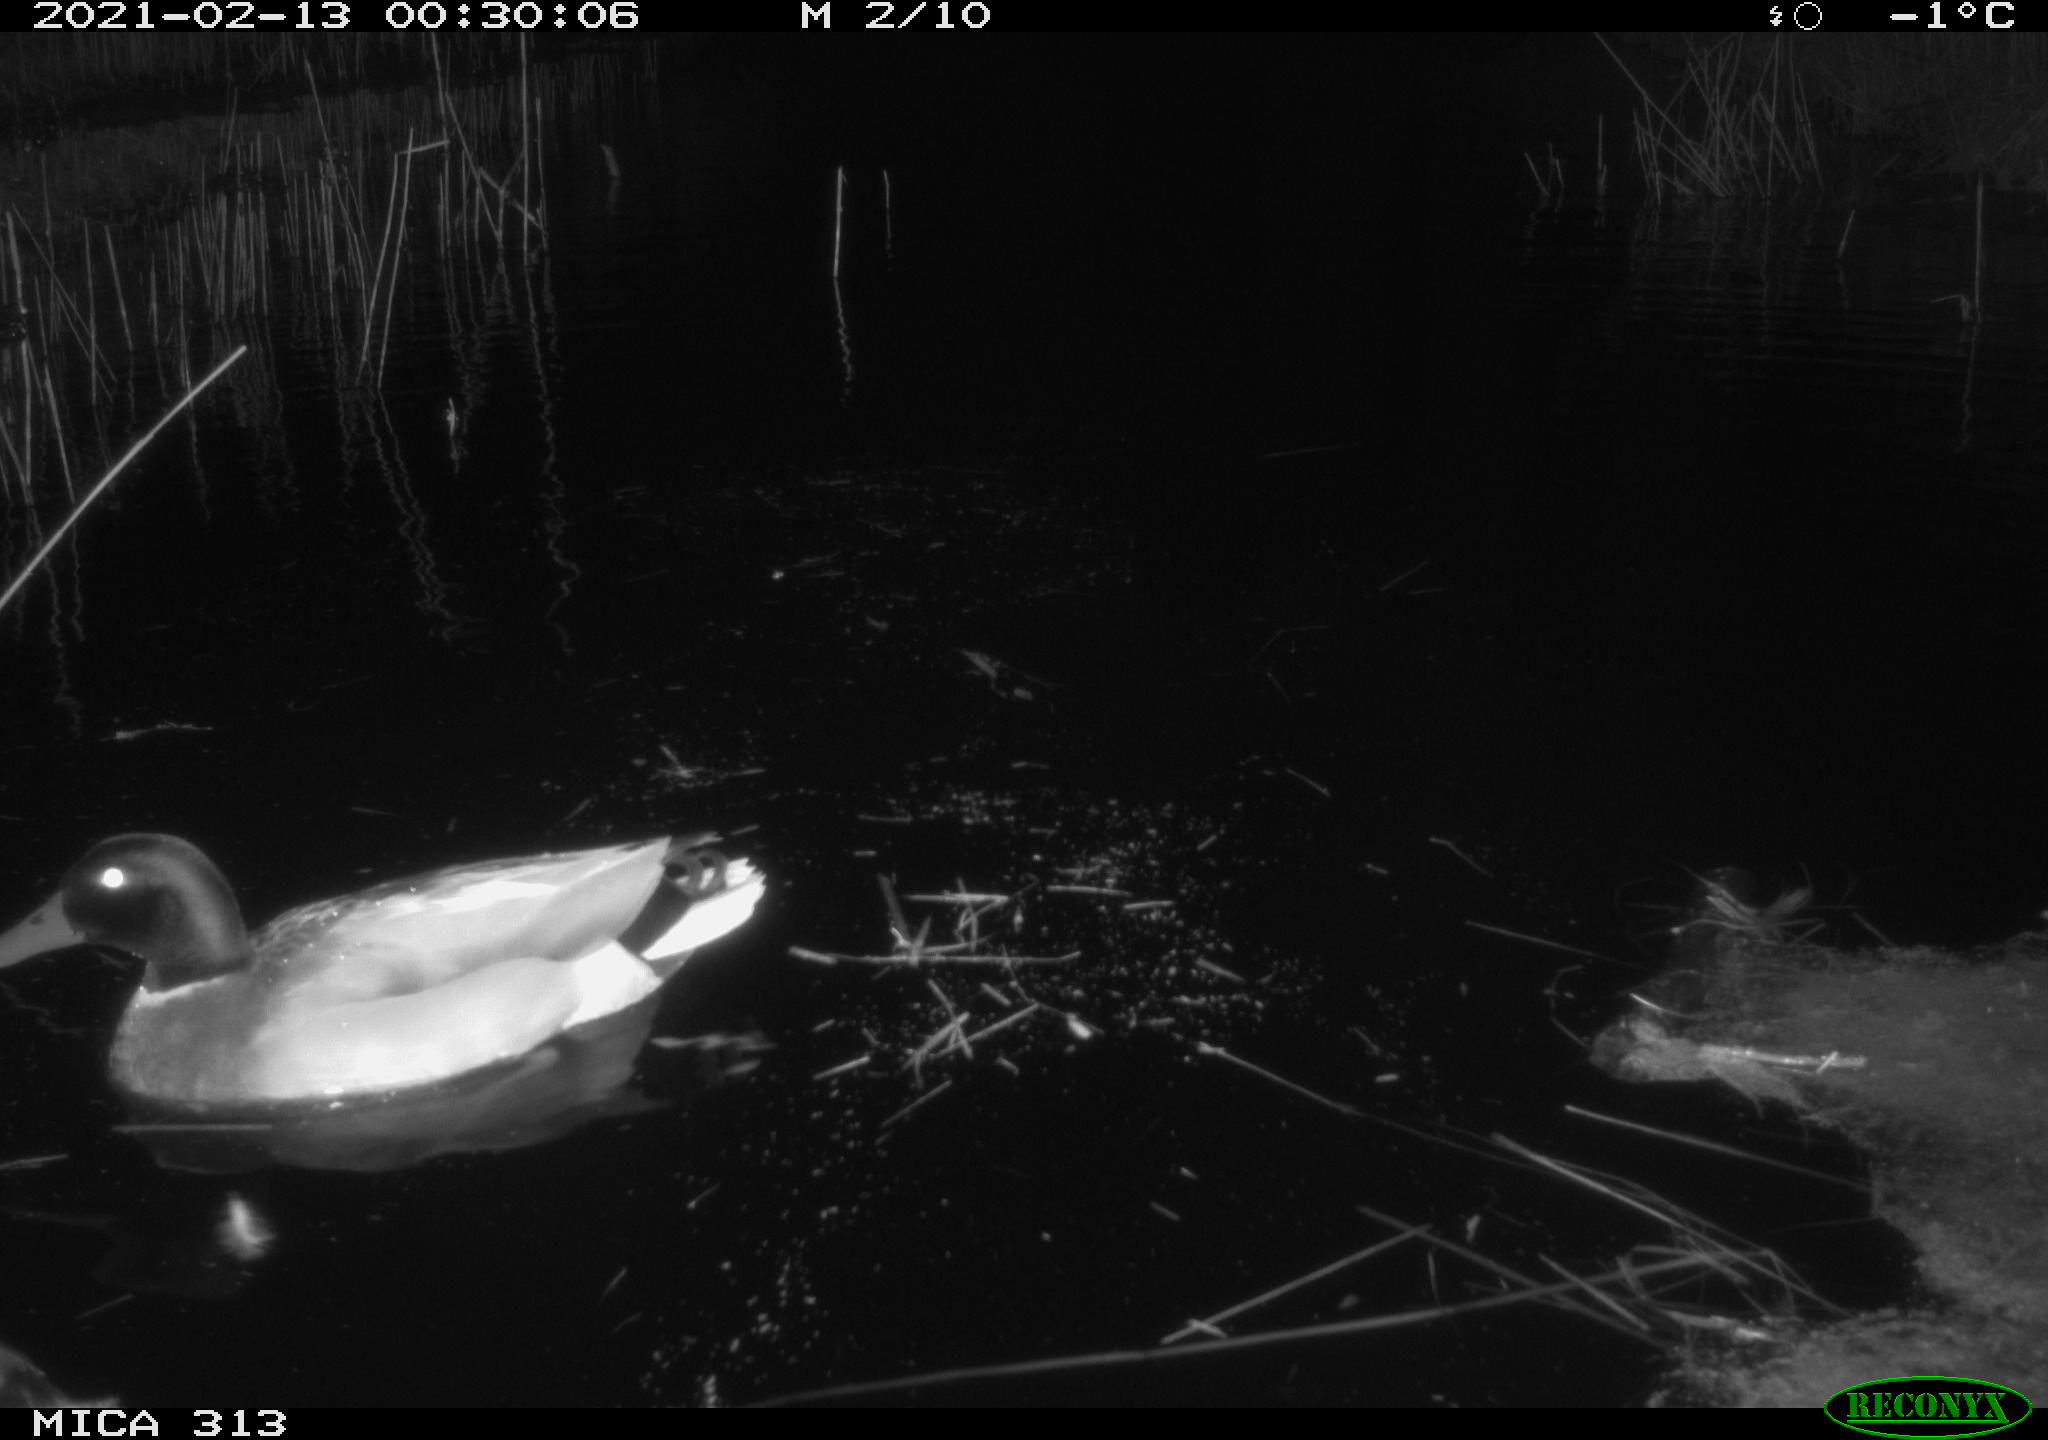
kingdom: Animalia
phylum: Chordata
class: Aves
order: Anseriformes
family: Anatidae
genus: Anas
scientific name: Anas
